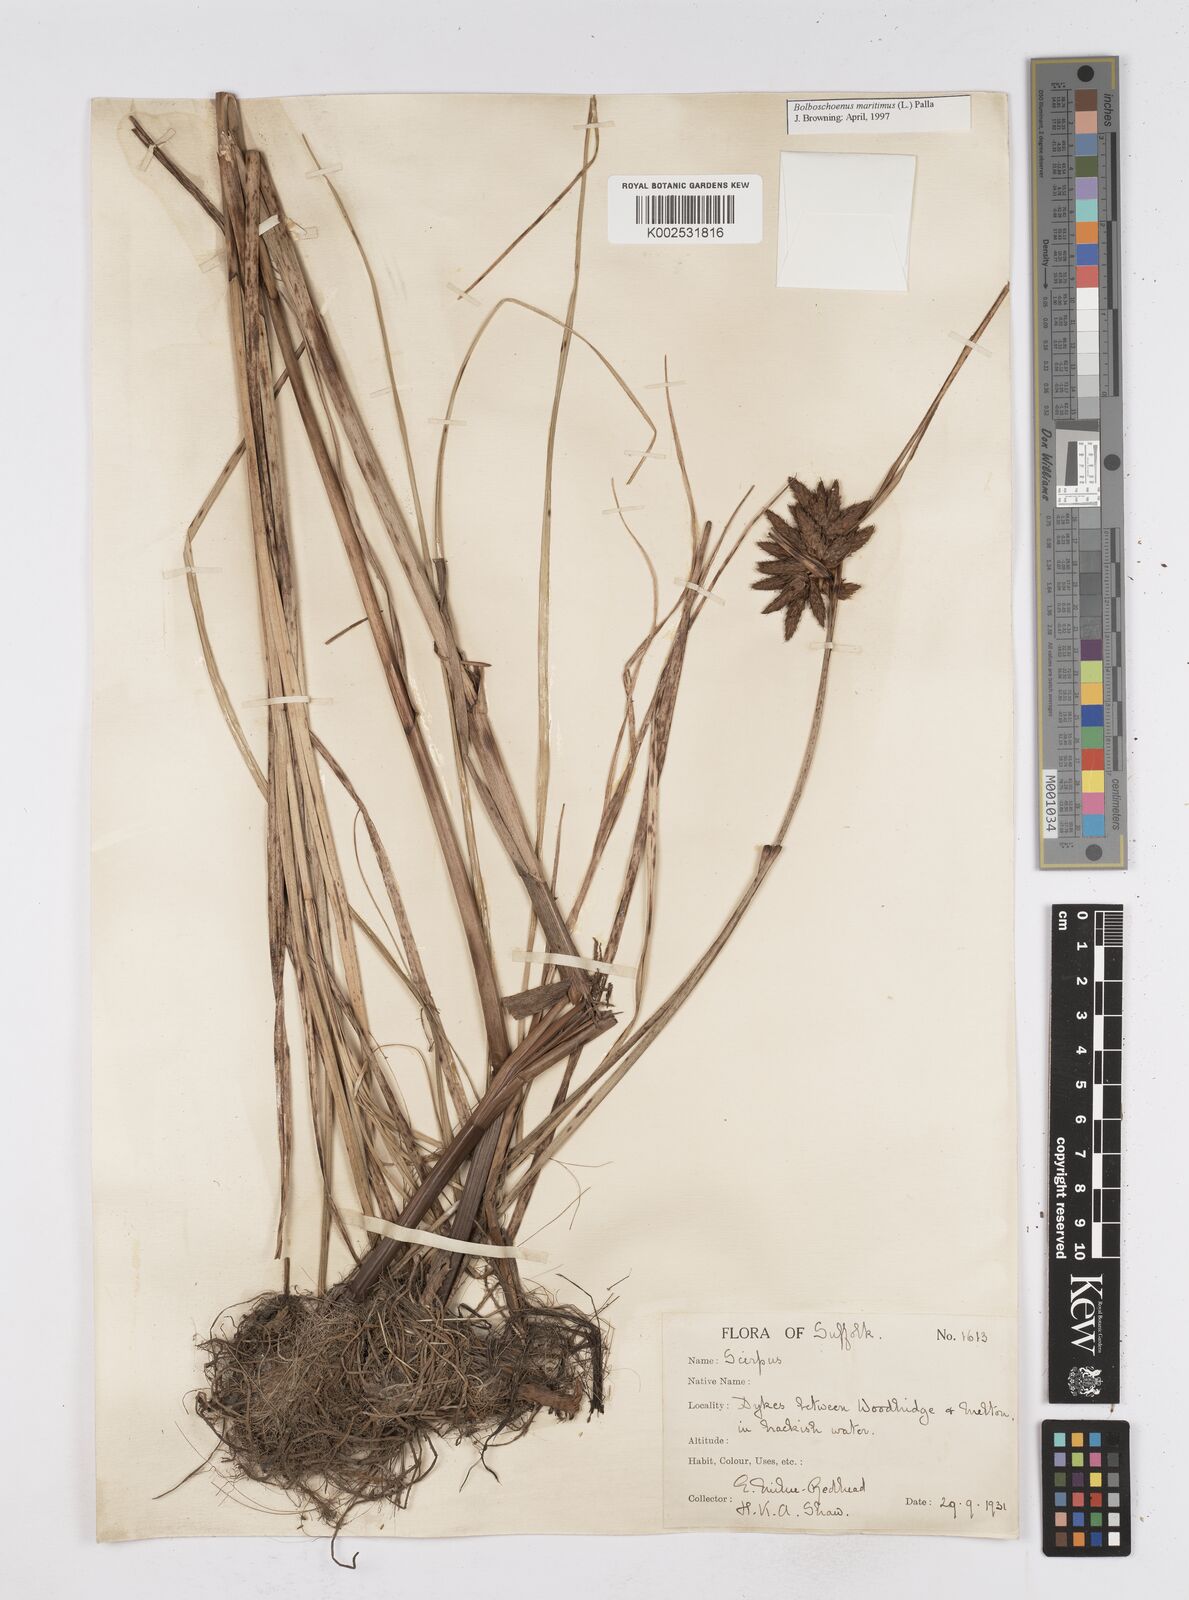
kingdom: Plantae
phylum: Tracheophyta
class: Liliopsida
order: Poales
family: Cyperaceae
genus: Bolboschoenus
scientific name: Bolboschoenus maritimus
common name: Sea club-rush
